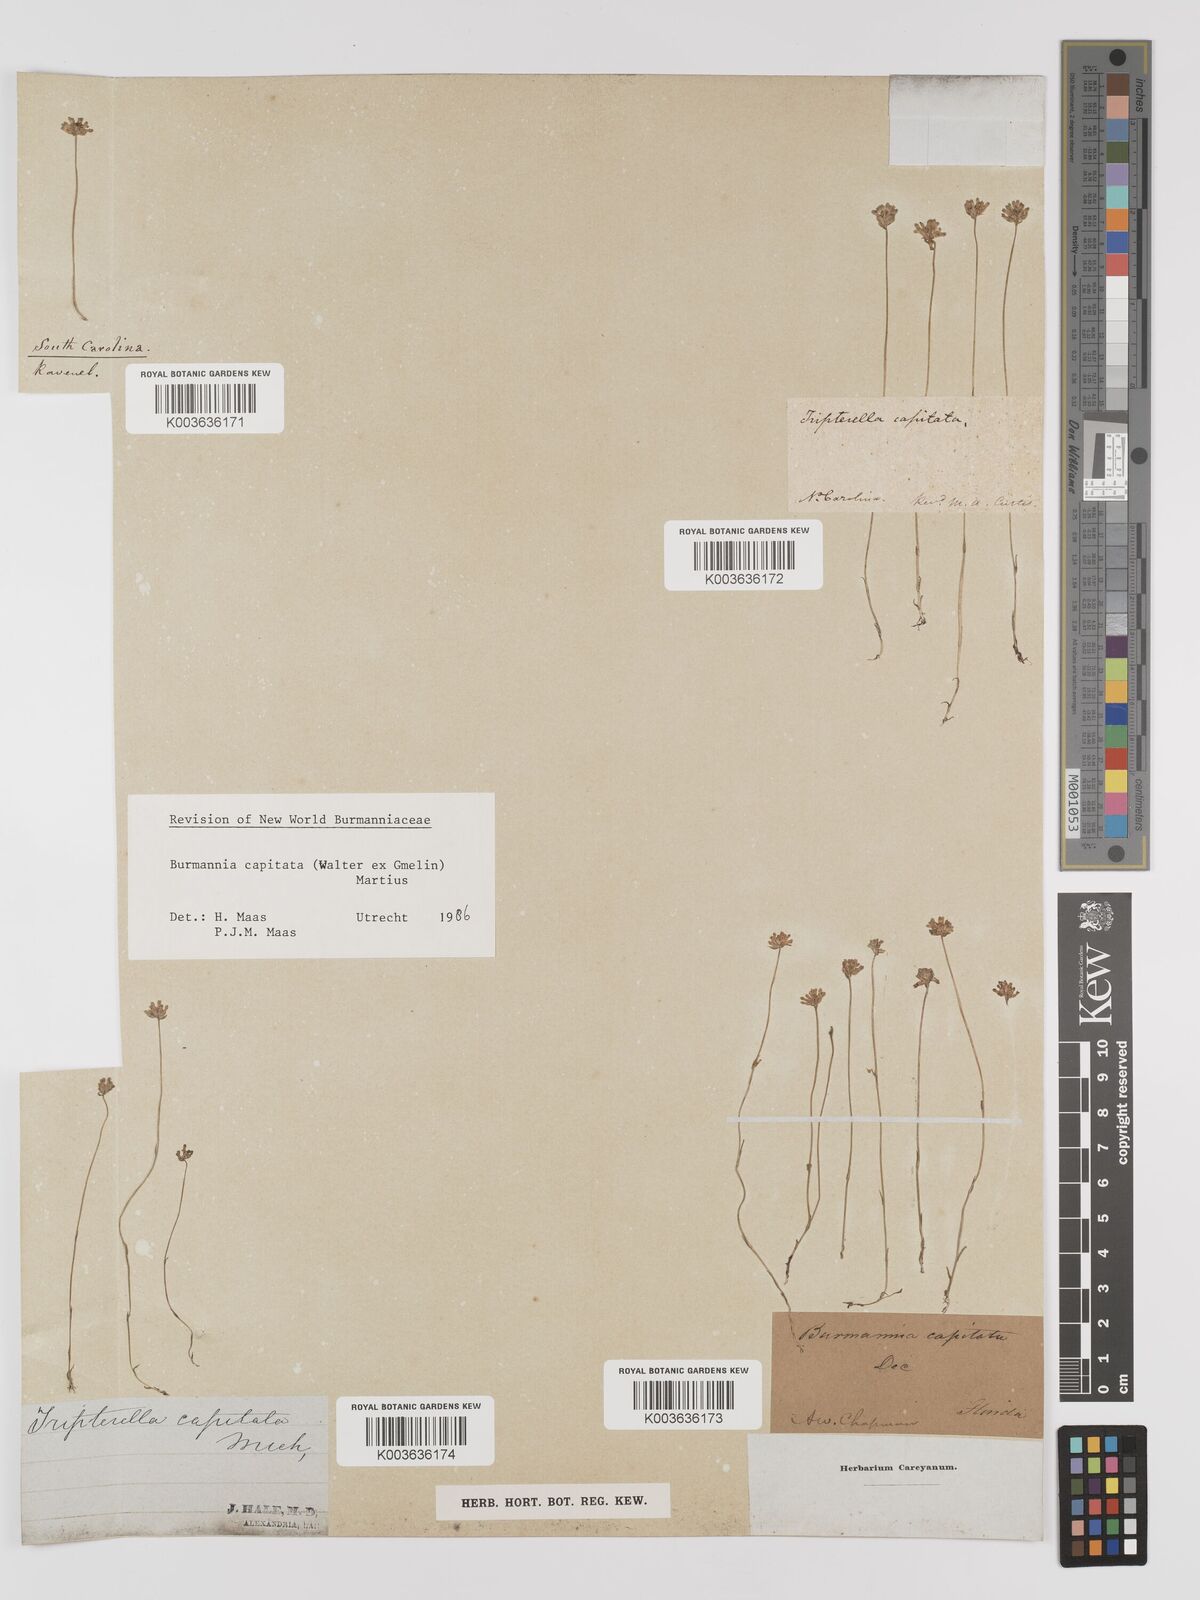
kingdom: Plantae
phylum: Tracheophyta
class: Liliopsida
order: Dioscoreales
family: Burmanniaceae
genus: Burmannia
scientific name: Burmannia capitata
